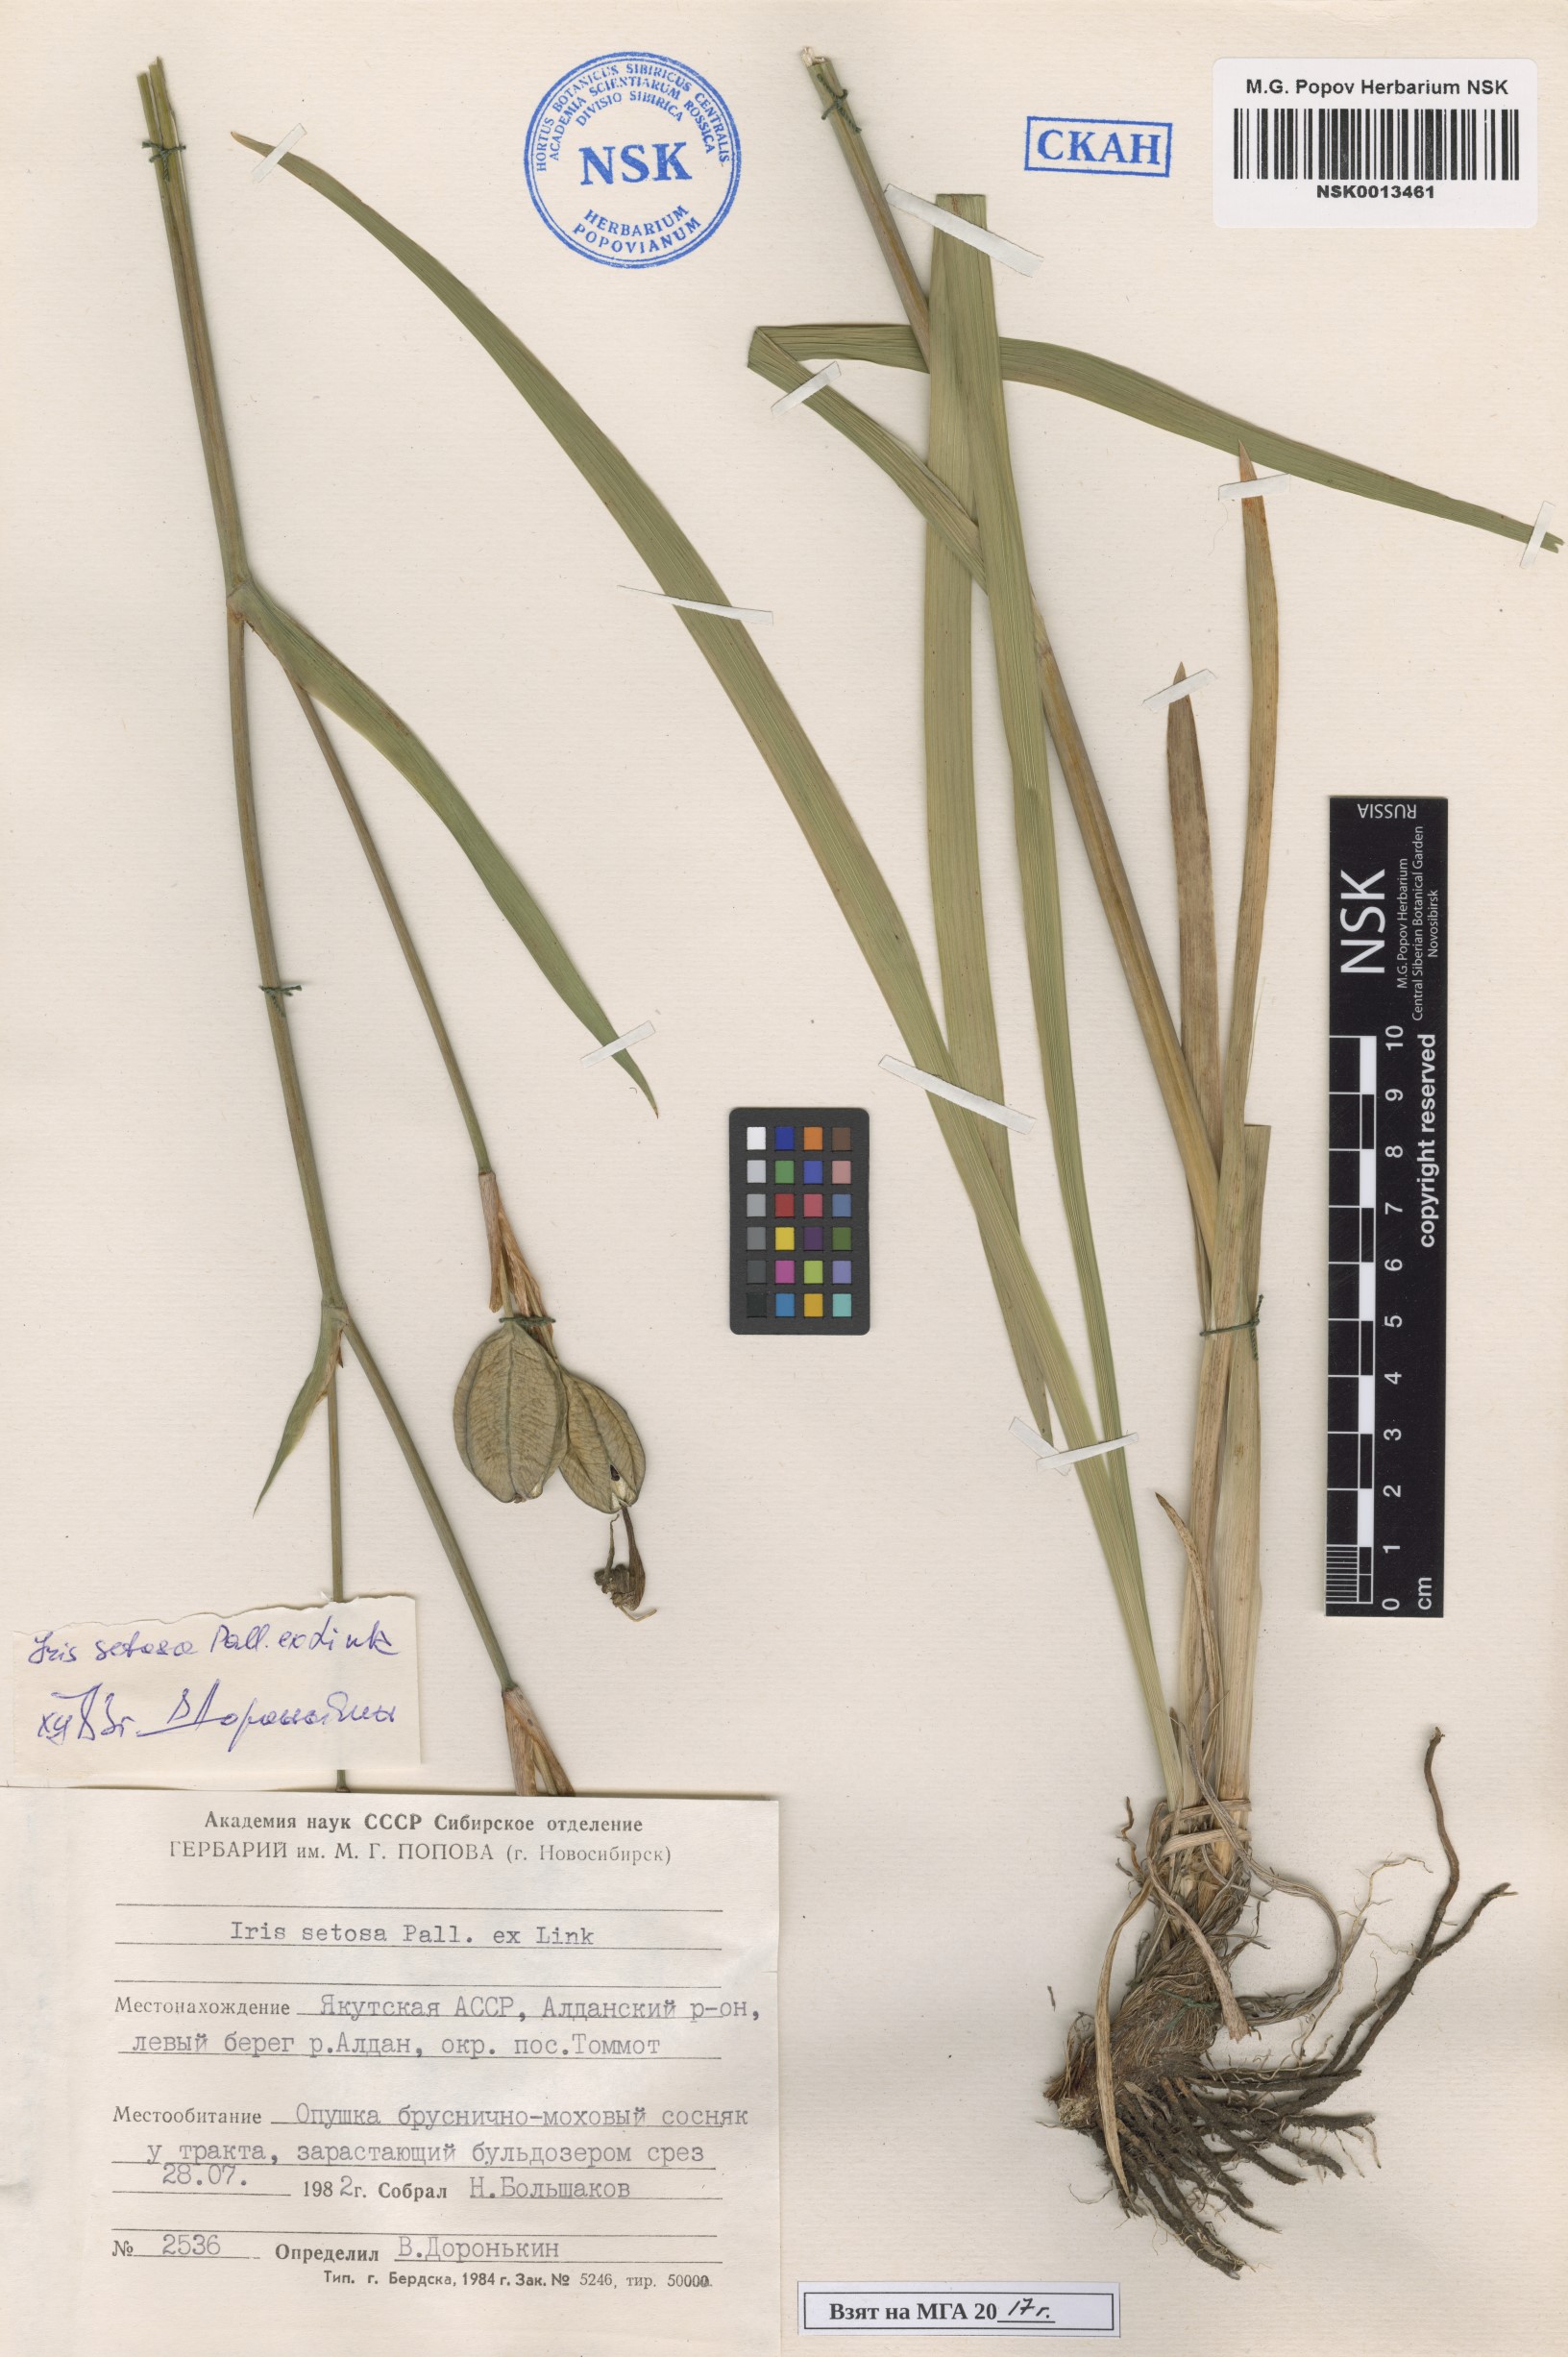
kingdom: Plantae
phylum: Tracheophyta
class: Liliopsida
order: Asparagales
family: Iridaceae
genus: Iris
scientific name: Iris setosa
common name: Arctic blue flag
